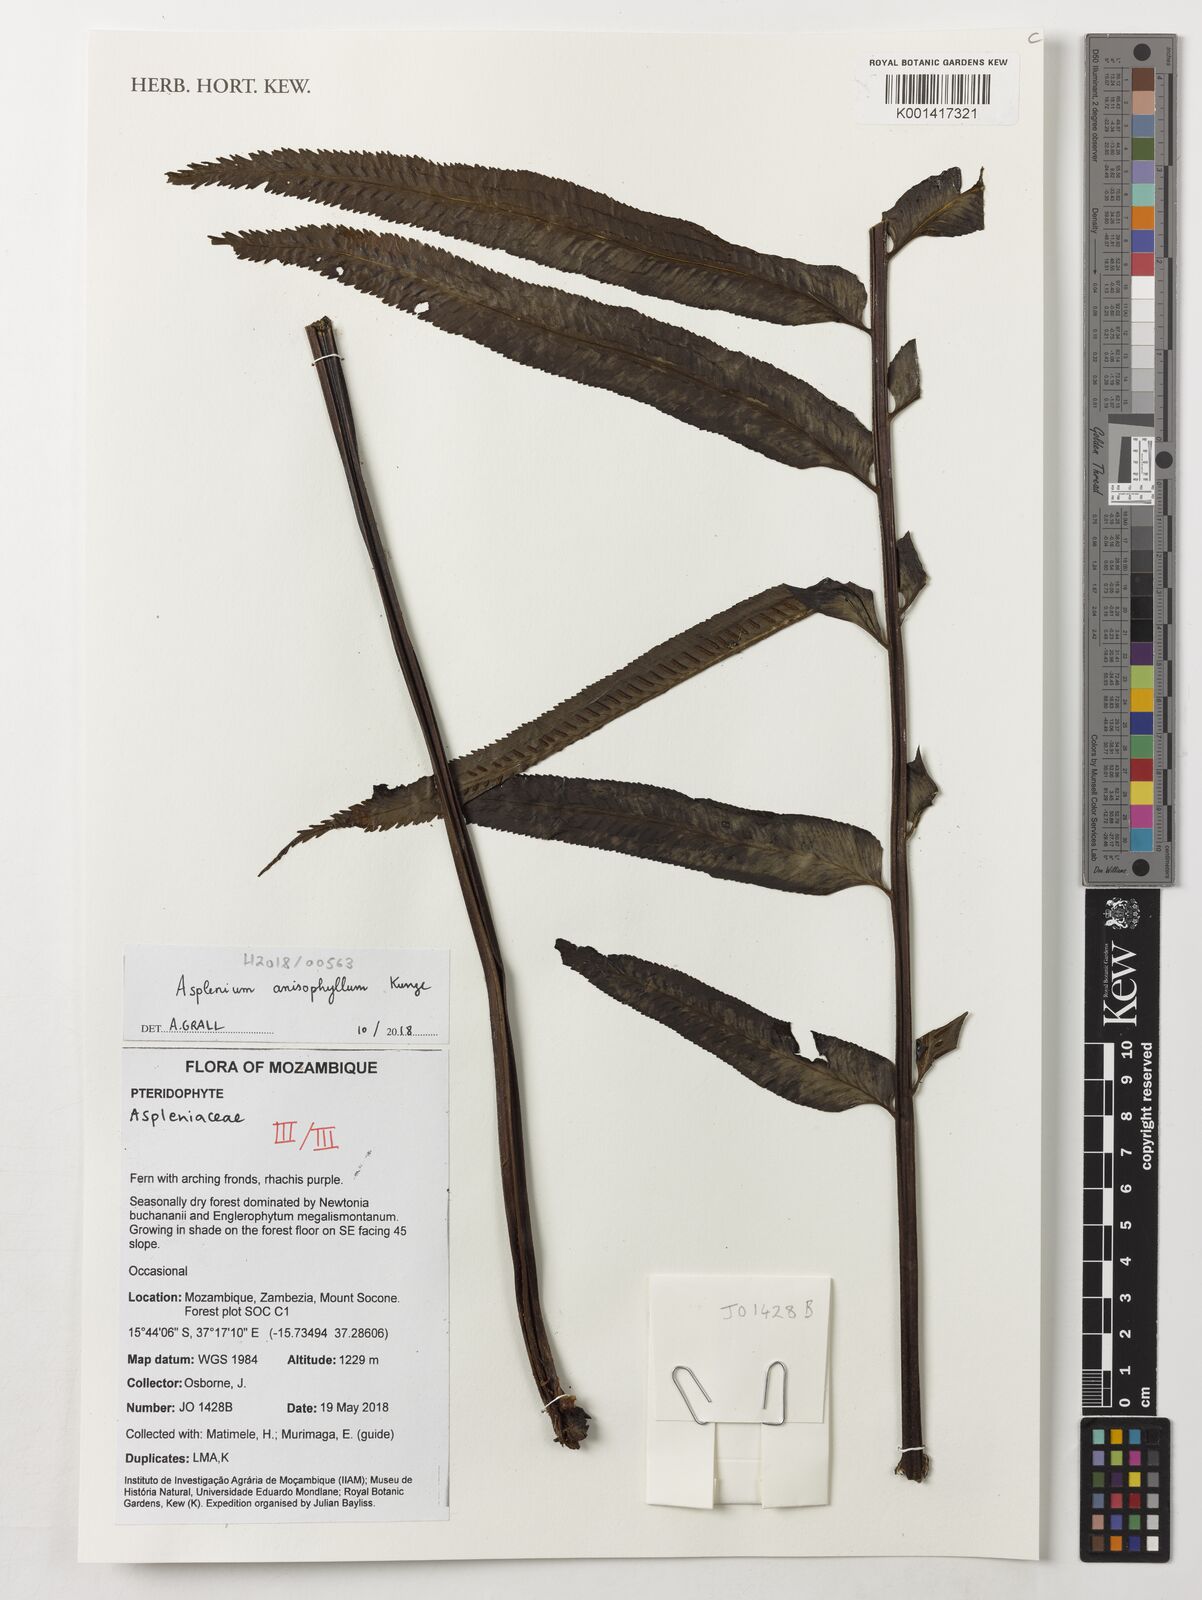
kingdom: Plantae
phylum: Tracheophyta
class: Polypodiopsida
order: Polypodiales
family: Aspleniaceae
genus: Asplenium
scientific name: Asplenium anisophyllum
